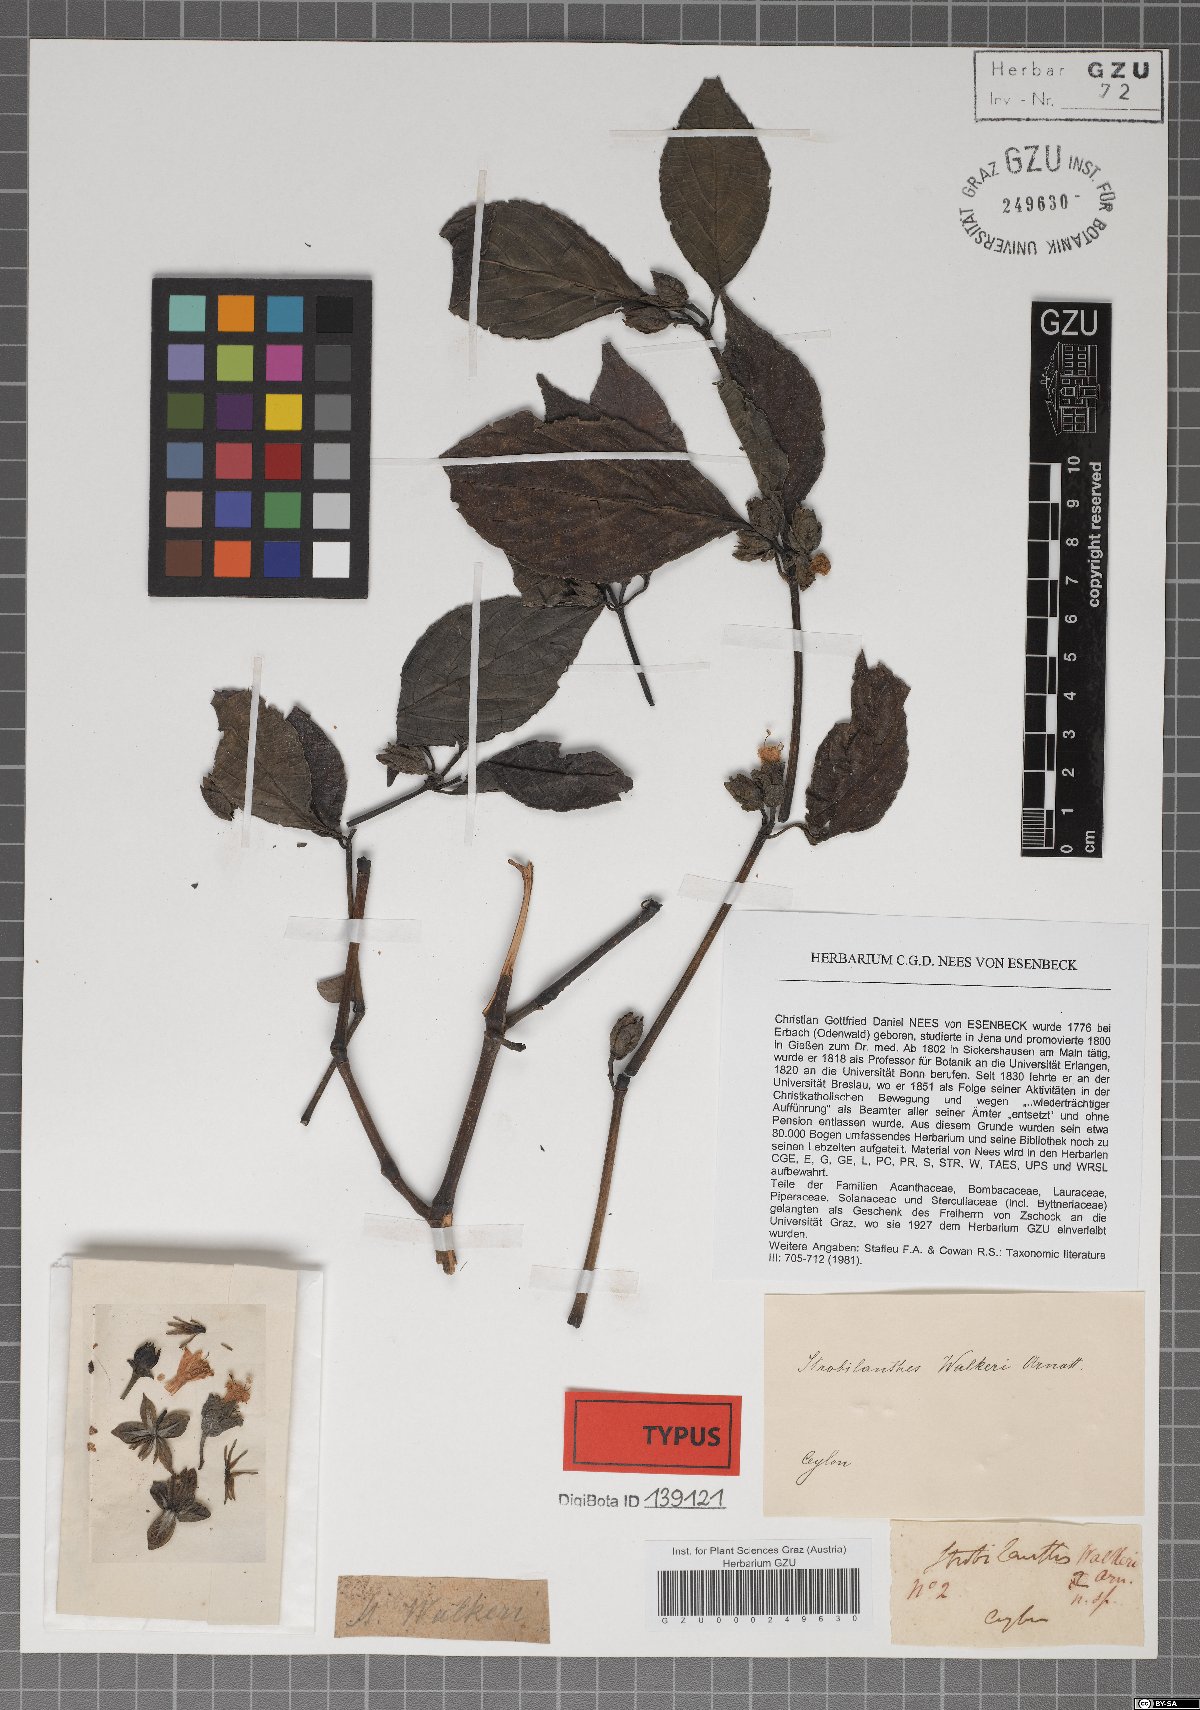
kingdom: Plantae
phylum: Tracheophyta
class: Magnoliopsida
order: Lamiales
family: Acanthaceae
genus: Strobilanthes
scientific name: Strobilanthes walkeri
